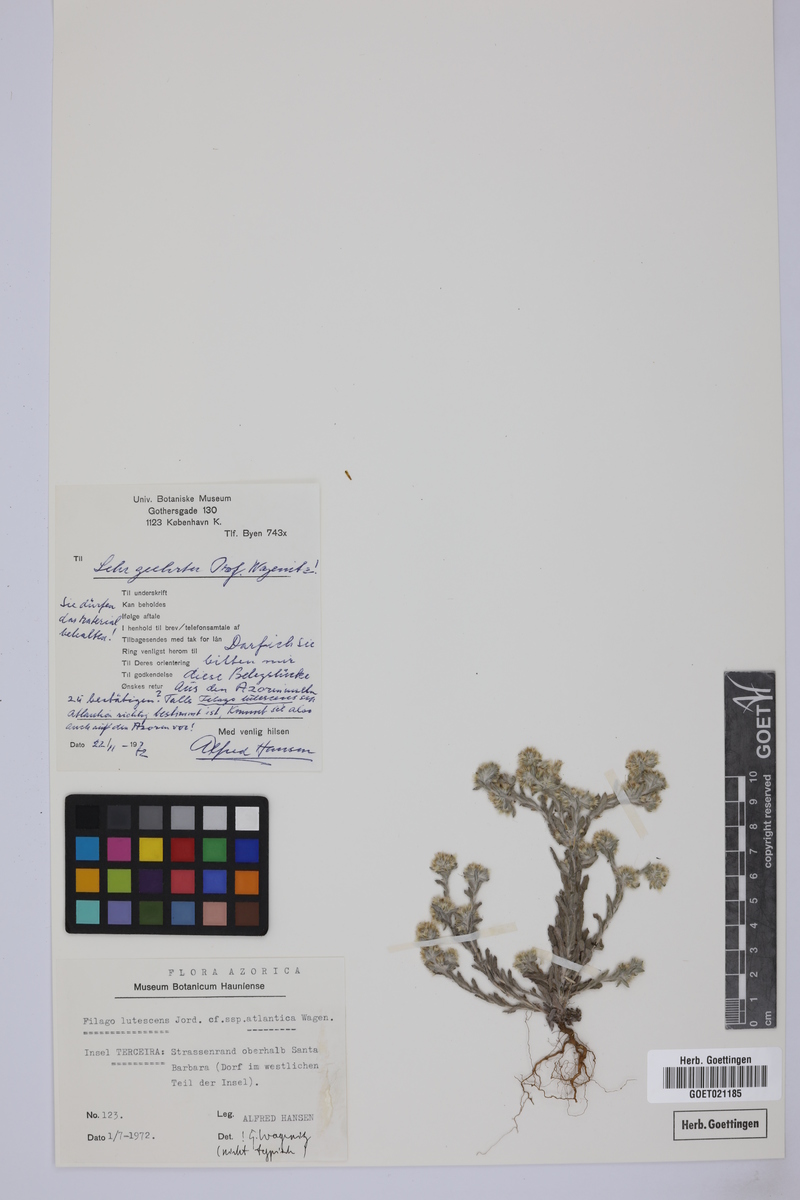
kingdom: Plantae
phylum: Tracheophyta
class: Magnoliopsida
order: Asterales
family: Asteraceae
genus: Filago
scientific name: Filago albicans
